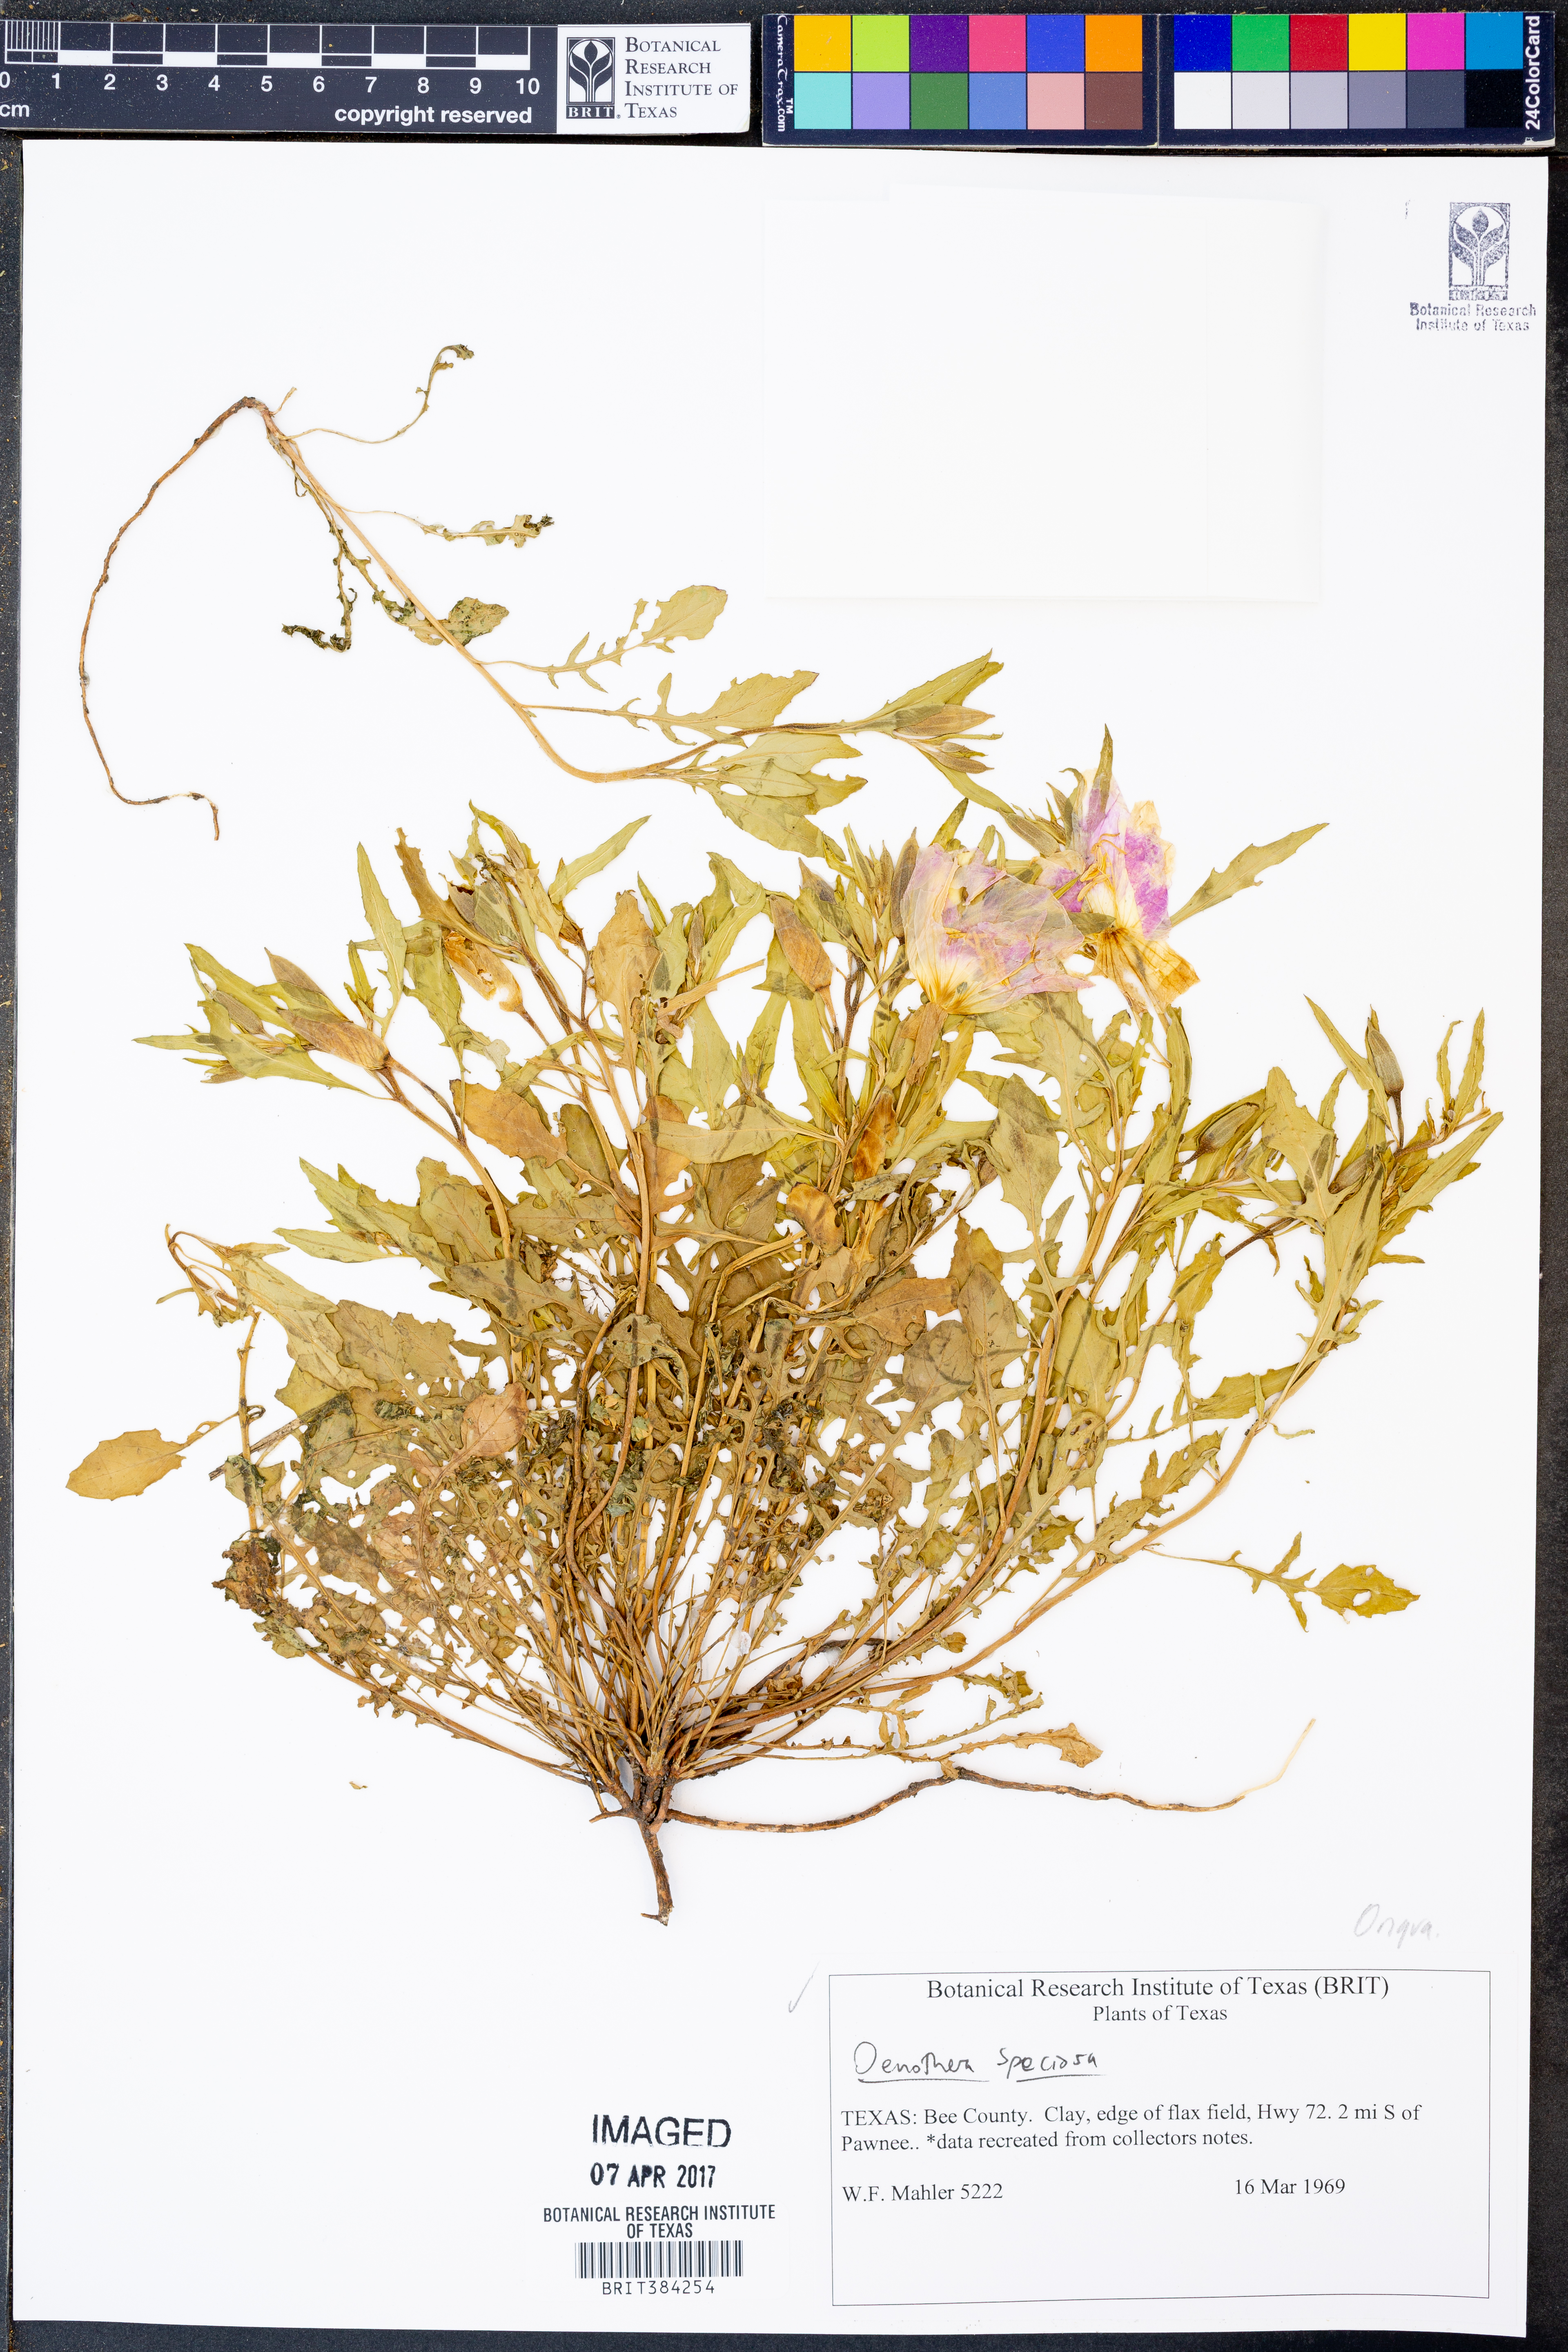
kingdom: Plantae
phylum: Tracheophyta
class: Magnoliopsida
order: Myrtales
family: Onagraceae
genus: Oenothera
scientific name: Oenothera speciosa
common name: White evening-primrose
